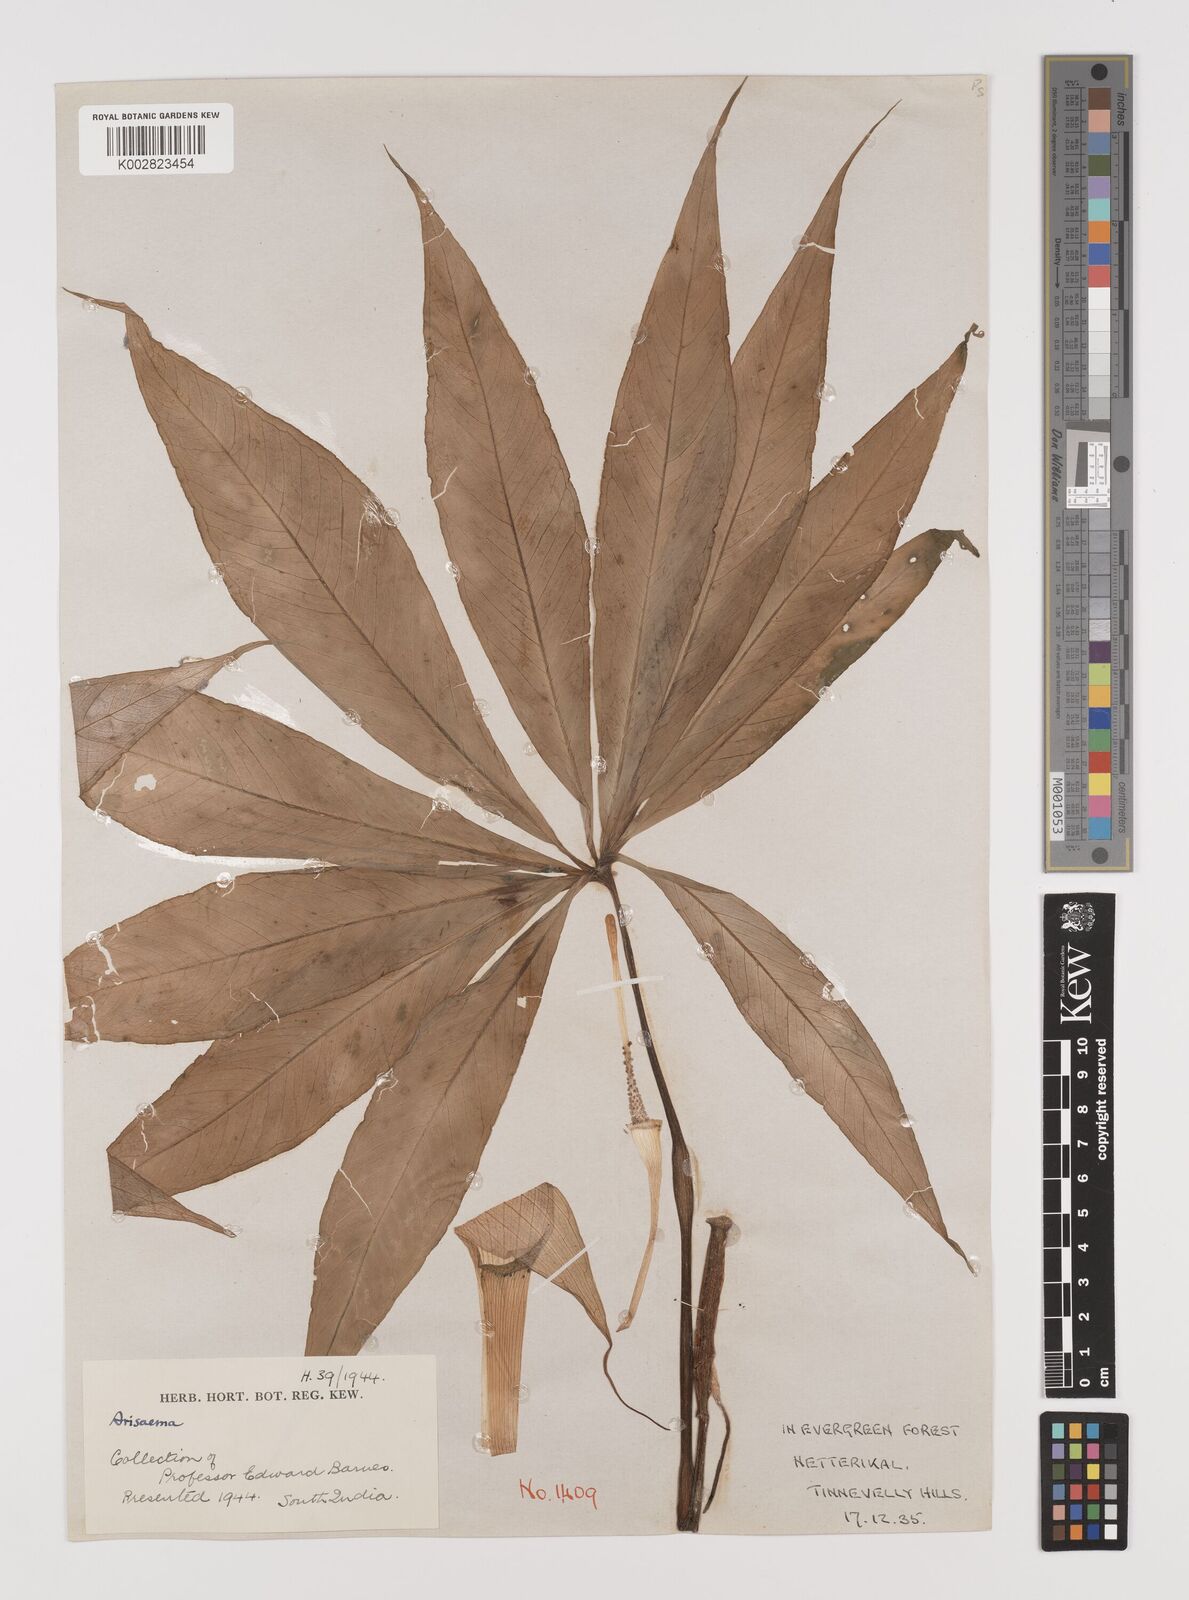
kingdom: Plantae
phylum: Tracheophyta
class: Liliopsida
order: Alismatales
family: Araceae
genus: Arisaema
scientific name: Arisaema
